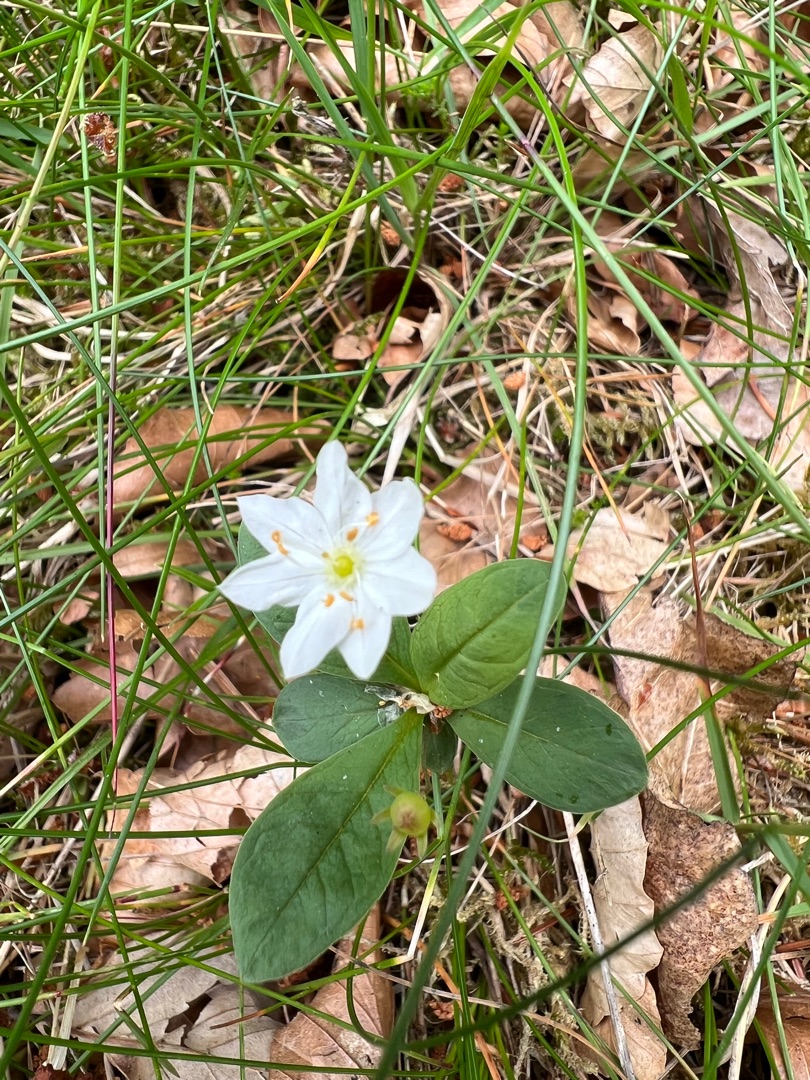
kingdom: Plantae
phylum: Tracheophyta
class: Magnoliopsida
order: Ericales
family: Primulaceae
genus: Lysimachia
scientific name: Lysimachia europaea
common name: Skovstjerne
